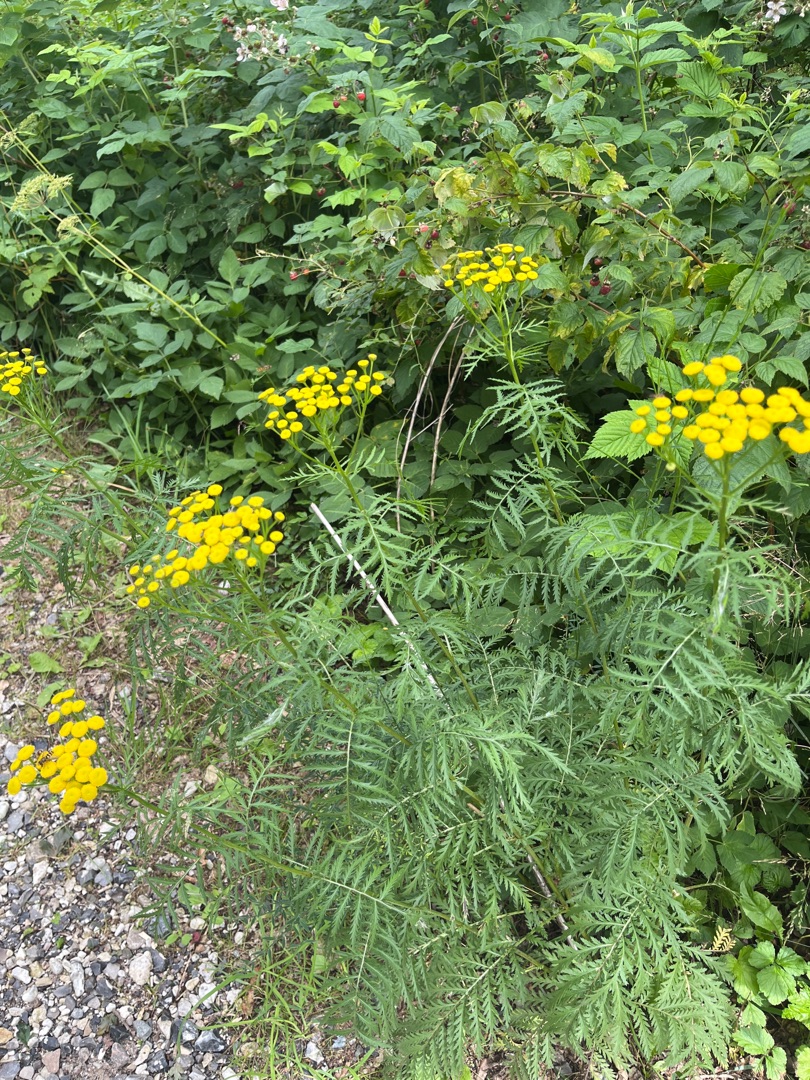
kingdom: Plantae
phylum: Tracheophyta
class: Magnoliopsida
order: Asterales
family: Asteraceae
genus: Tanacetum
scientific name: Tanacetum vulgare
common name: Rejnfan
